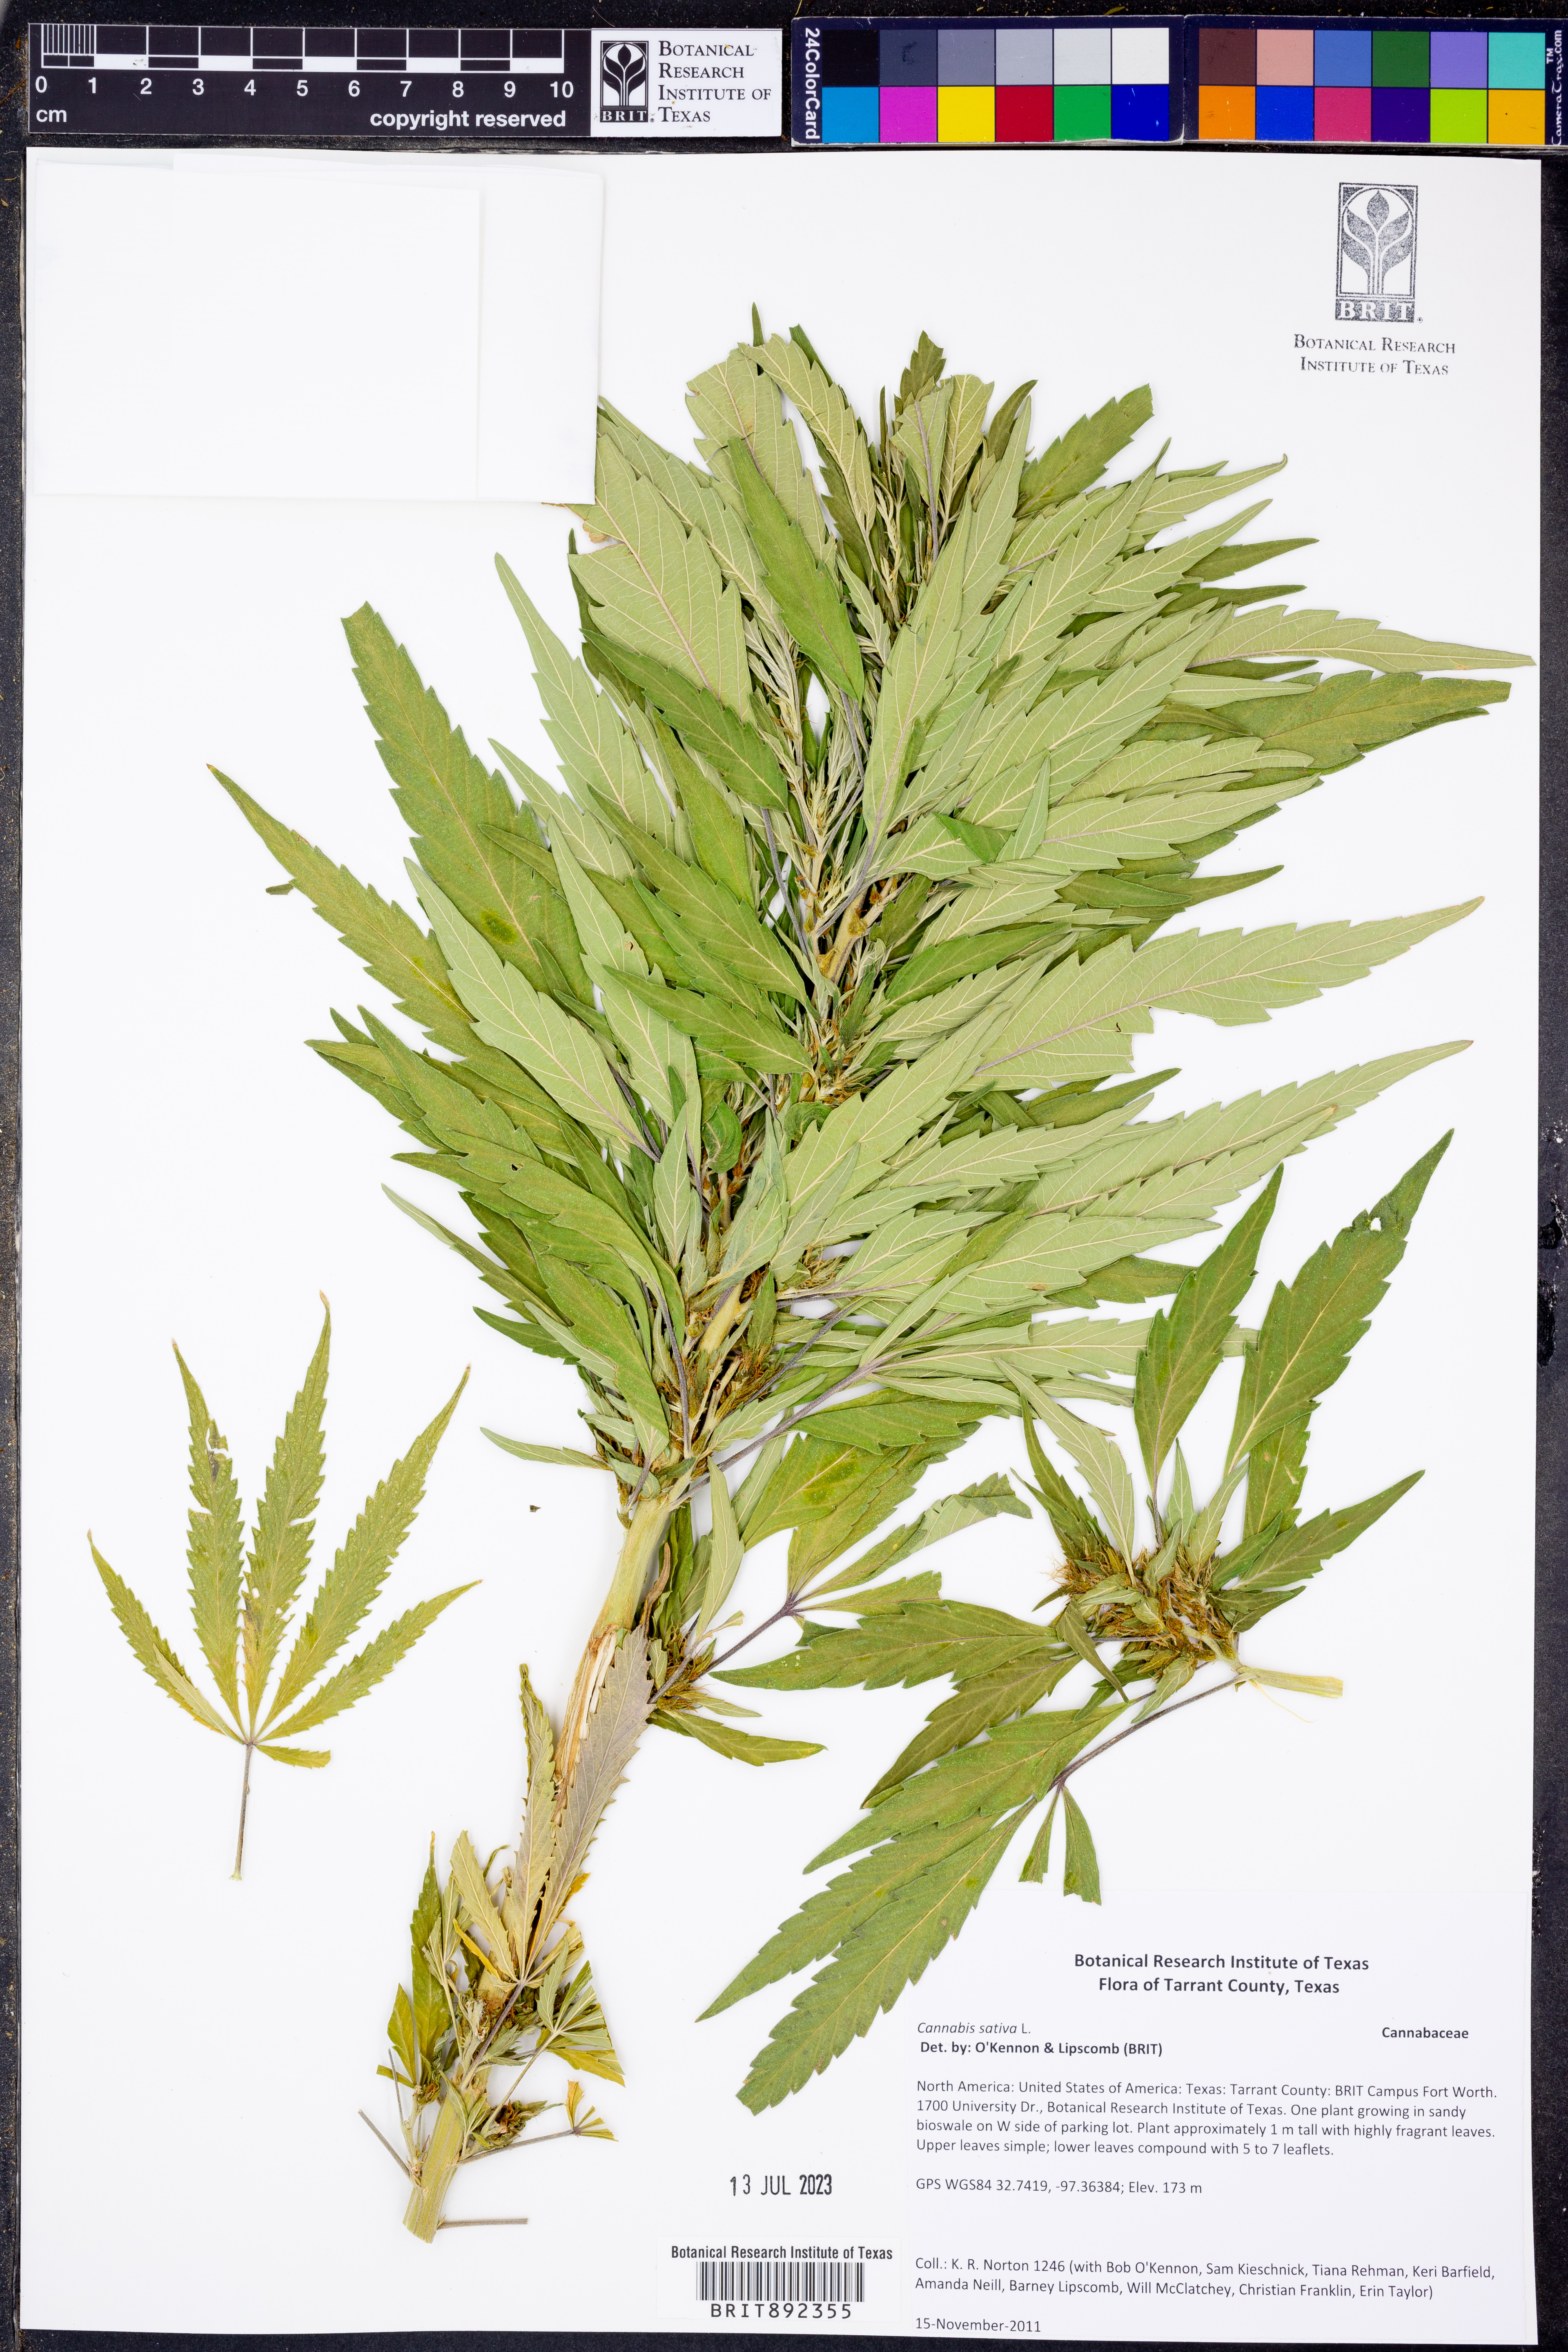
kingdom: Plantae
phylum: Tracheophyta
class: Magnoliopsida
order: Rosales
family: Cannabaceae
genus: Cannabis
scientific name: Cannabis sativa
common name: Hemp
